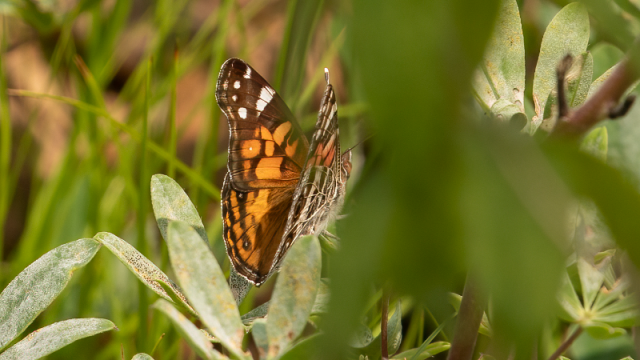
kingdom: Animalia
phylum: Arthropoda
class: Insecta
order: Lepidoptera
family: Nymphalidae
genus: Vanessa
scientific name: Vanessa virginiensis
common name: American Lady
